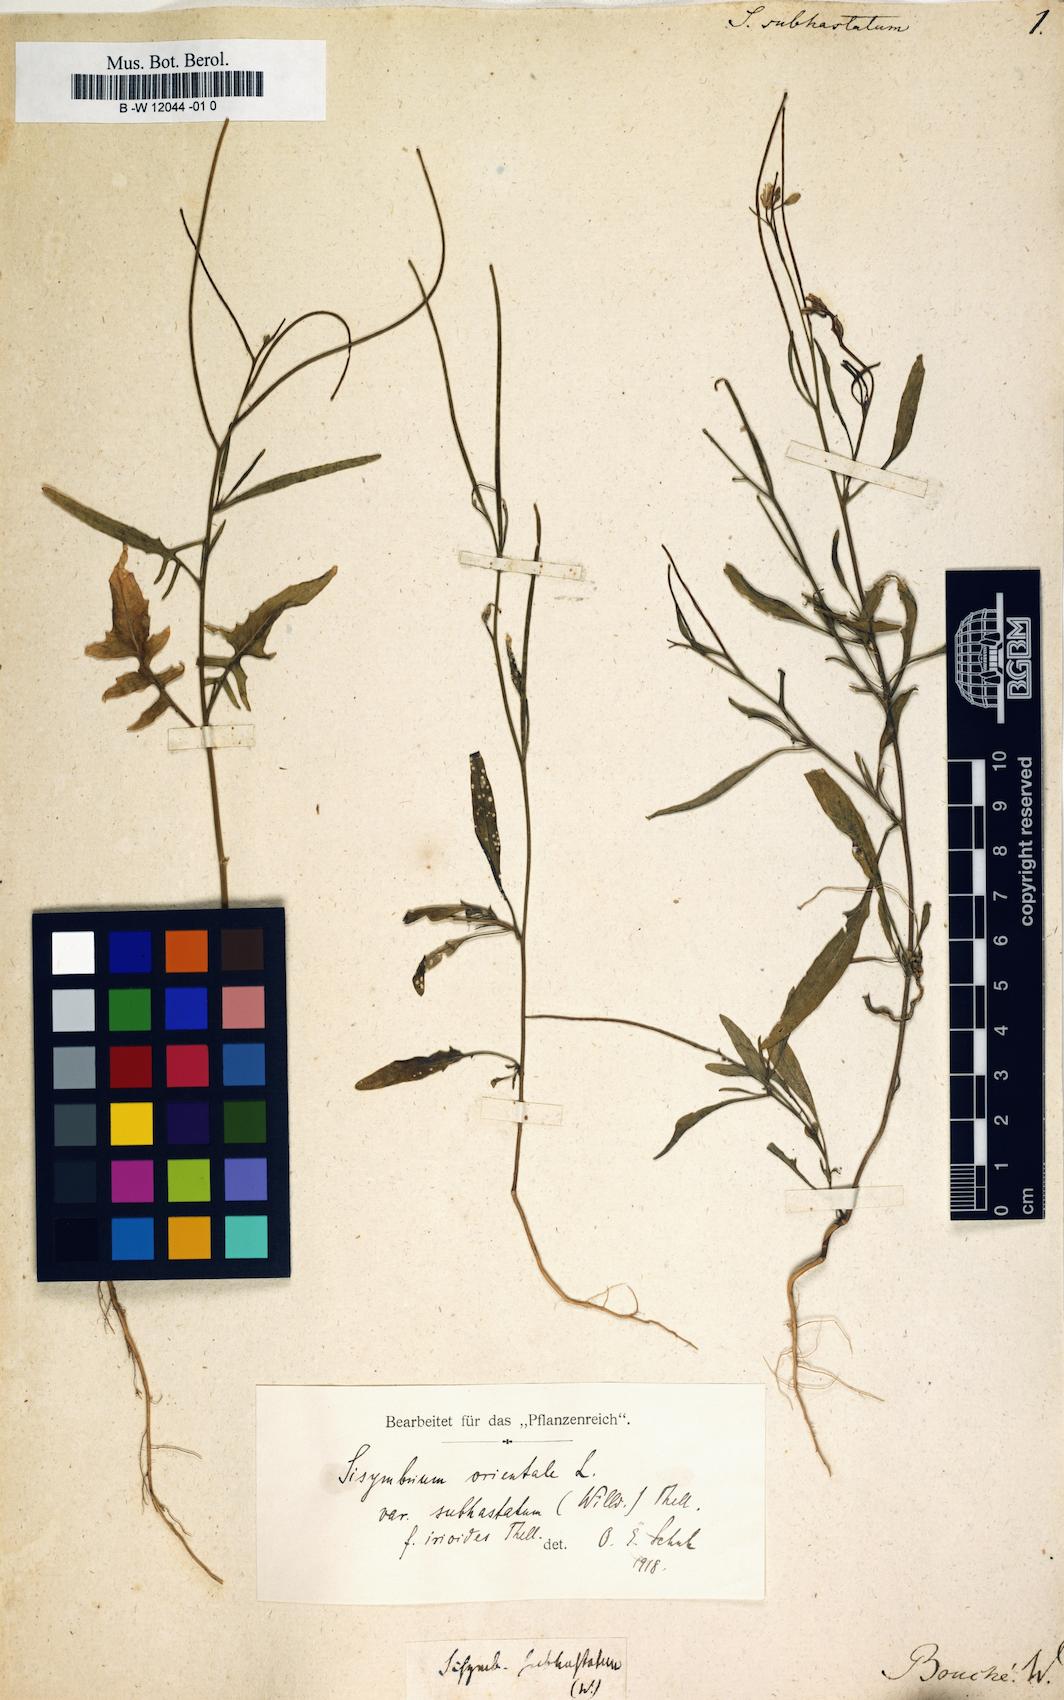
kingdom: Plantae
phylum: Tracheophyta
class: Magnoliopsida
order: Brassicales
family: Brassicaceae
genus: Sisymbrium
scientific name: Sisymbrium
